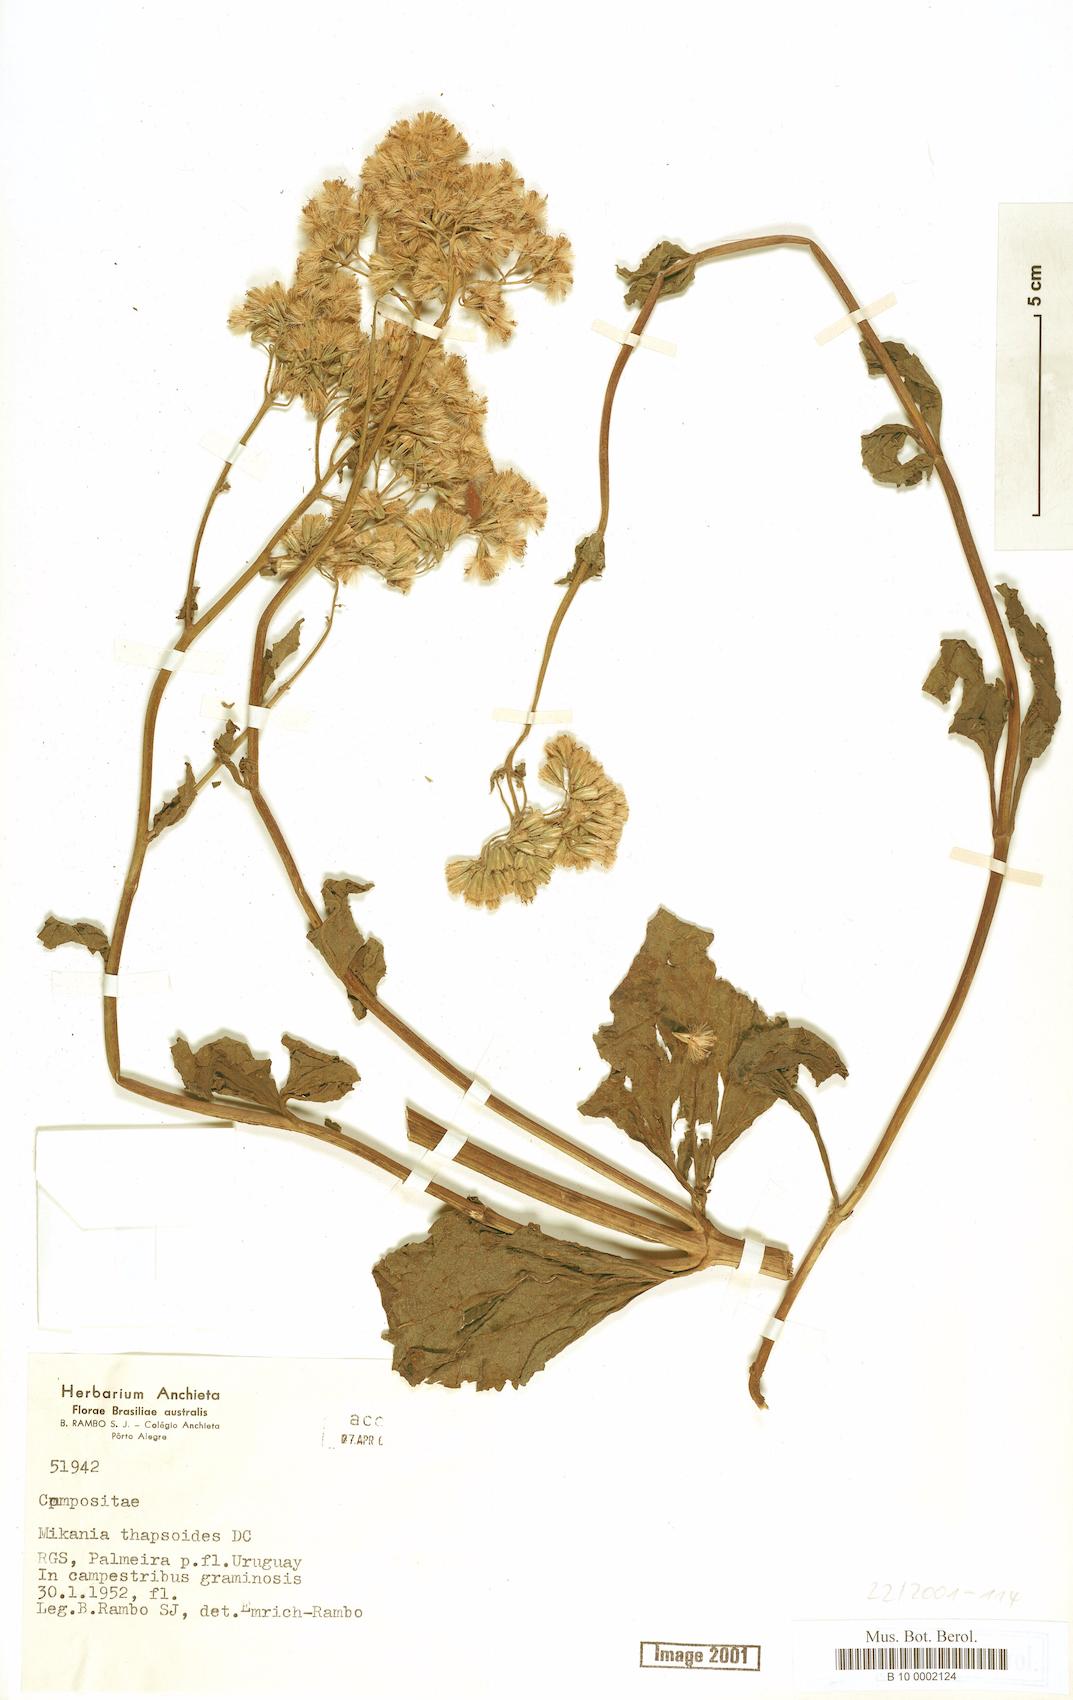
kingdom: Plantae
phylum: Tracheophyta
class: Magnoliopsida
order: Asterales
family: Asteraceae
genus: Mikania
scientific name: Mikania thapsoides
